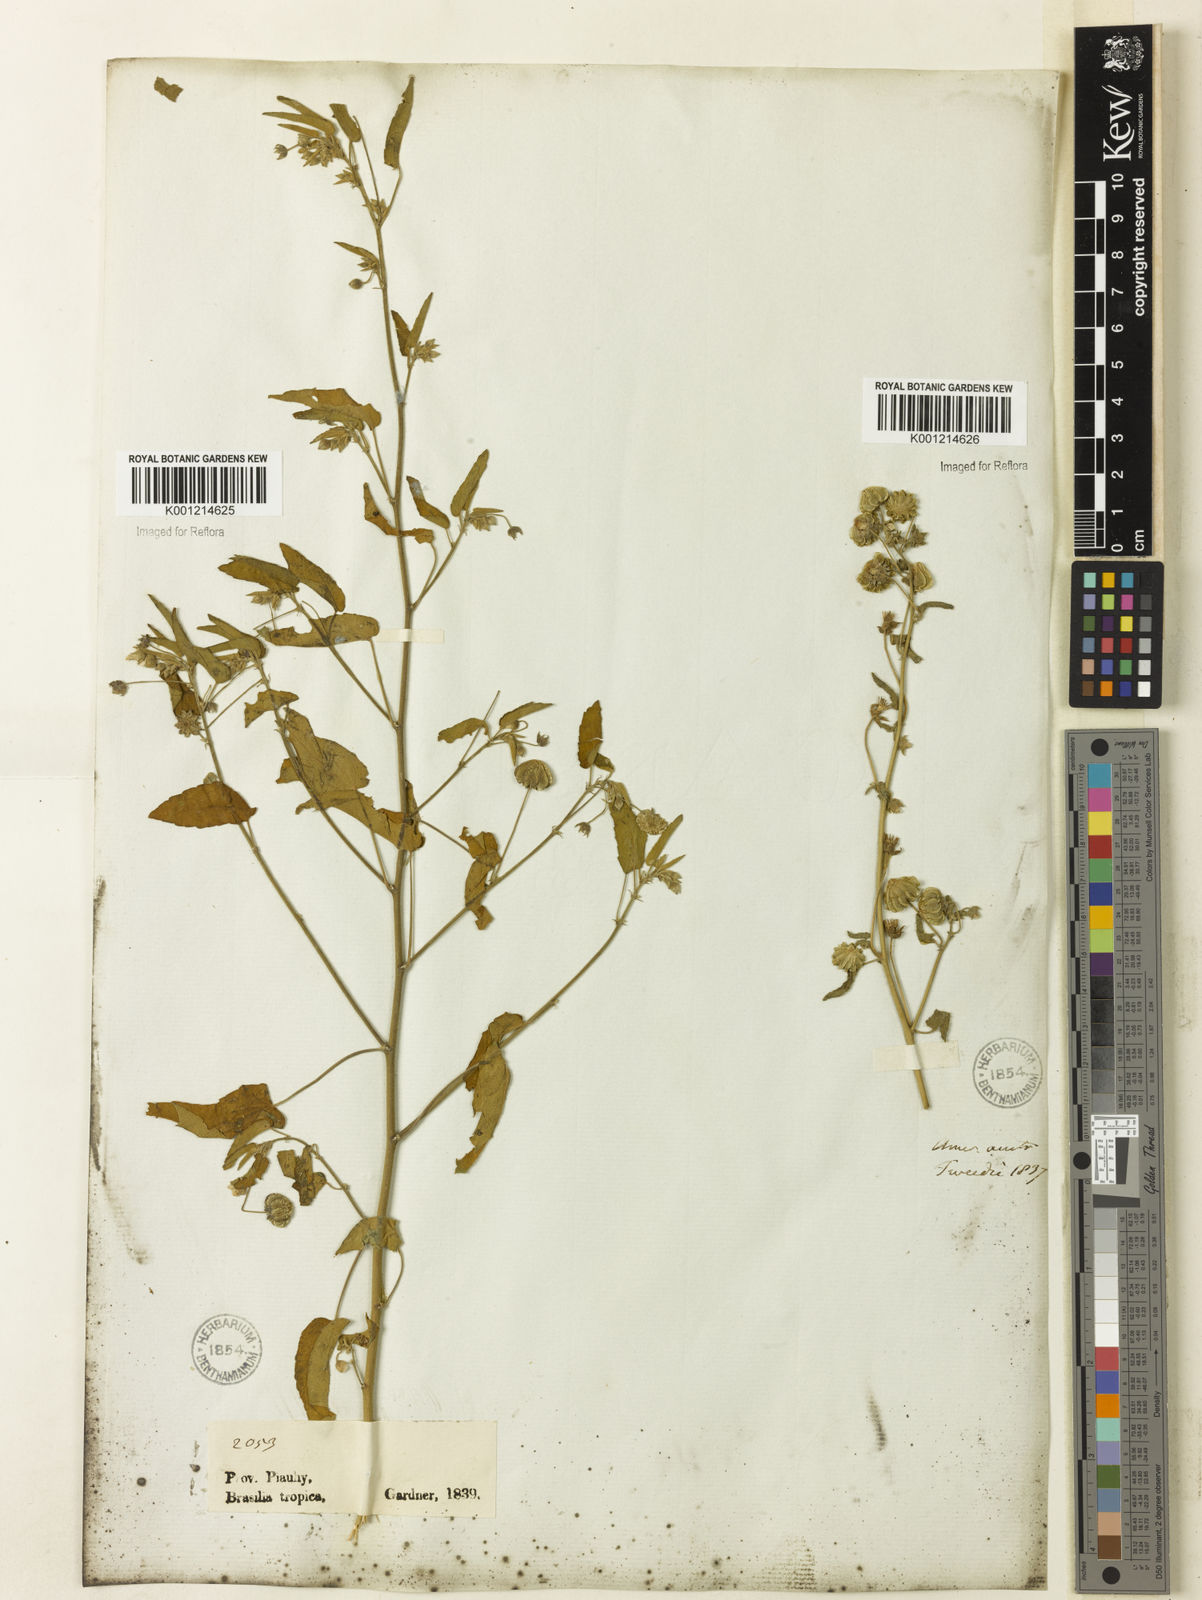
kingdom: Plantae
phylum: Tracheophyta
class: Magnoliopsida
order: Malvales
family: Malvaceae
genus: Gaya
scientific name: Gaya
